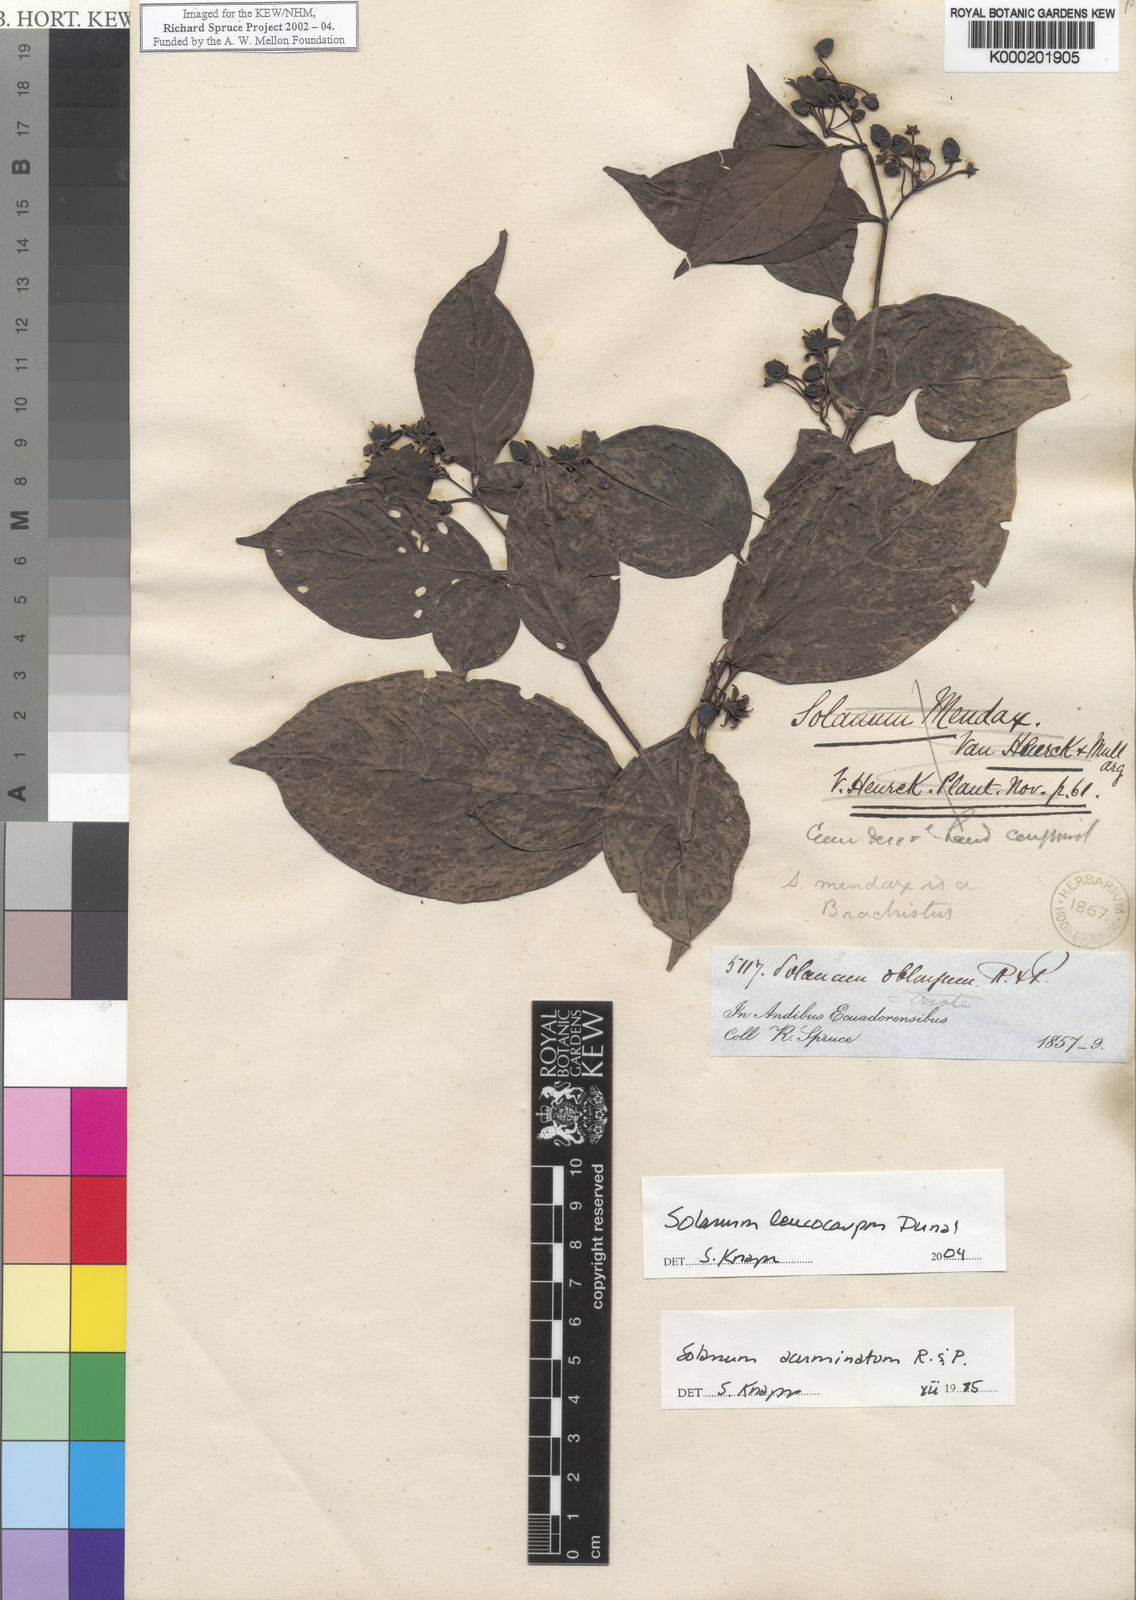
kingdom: Plantae
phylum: Tracheophyta
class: Magnoliopsida
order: Solanales
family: Solanaceae
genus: Solanum
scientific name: Solanum leucocarpon
